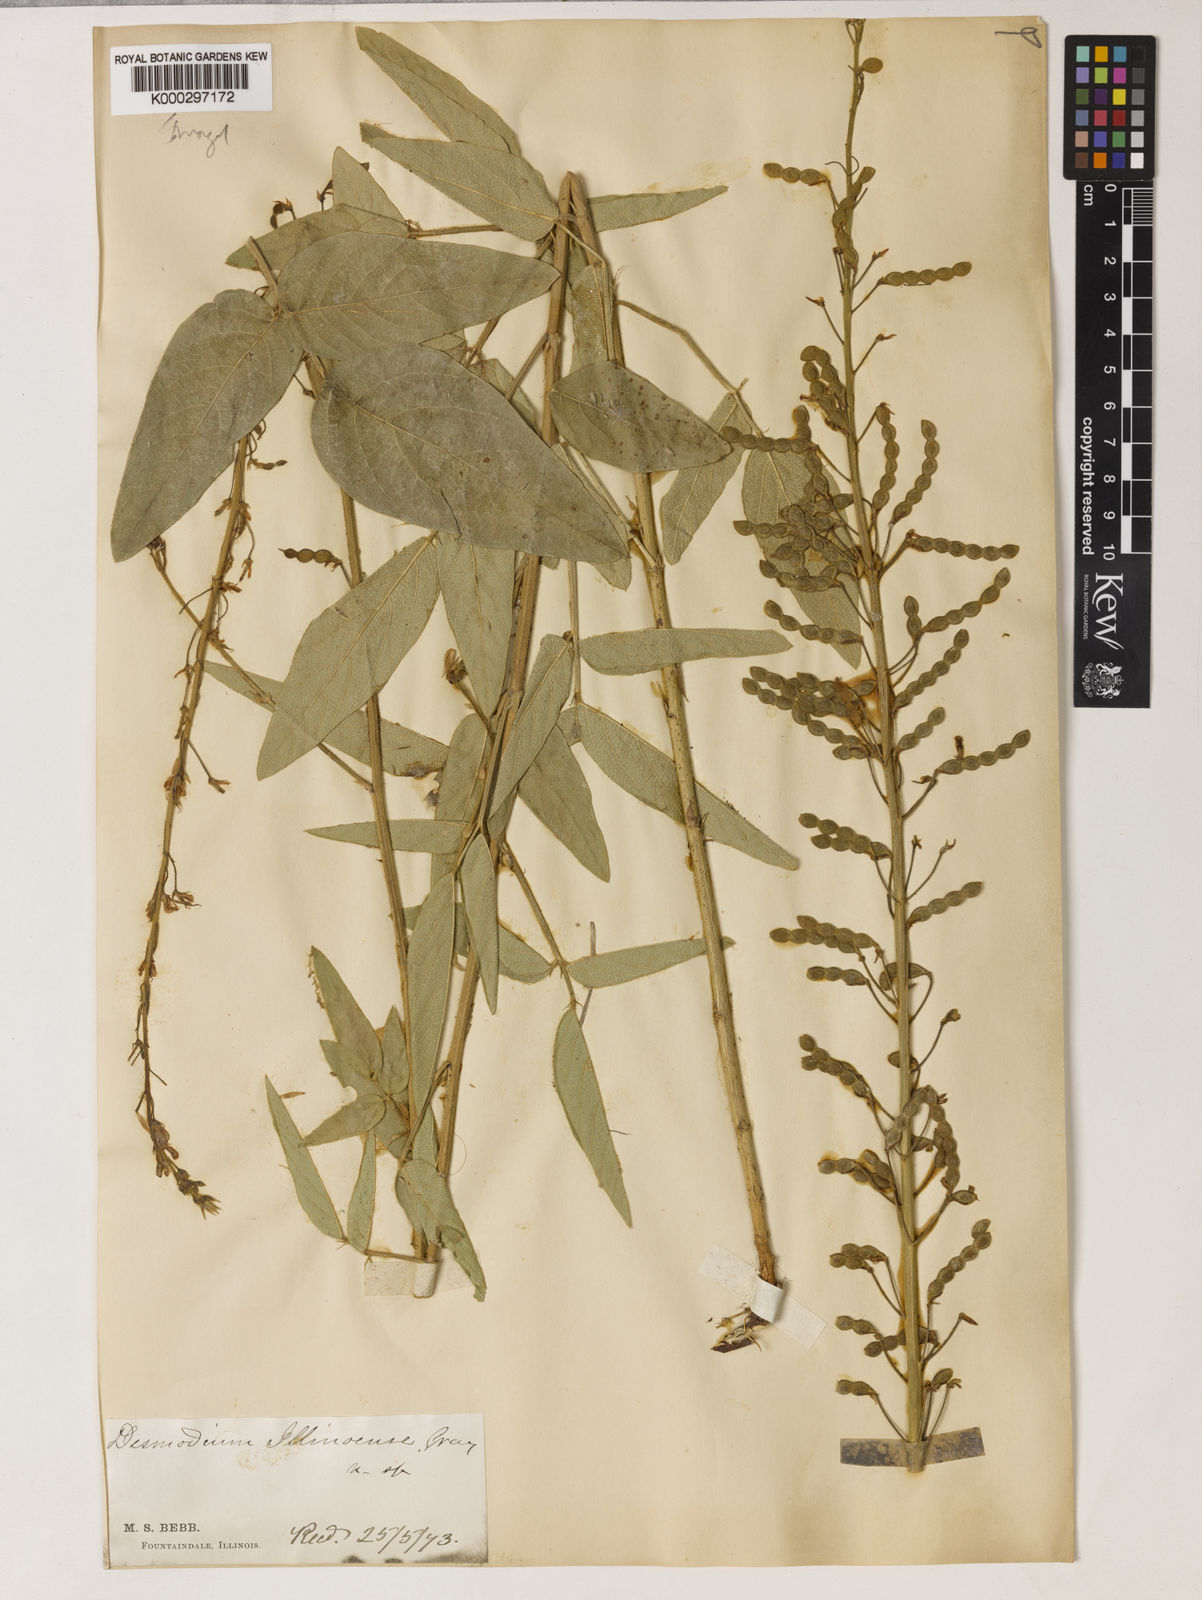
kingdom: Plantae
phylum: Tracheophyta
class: Magnoliopsida
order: Fabales
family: Fabaceae
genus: Desmodium
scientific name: Desmodium illinoense
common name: Illinois tick-clover
